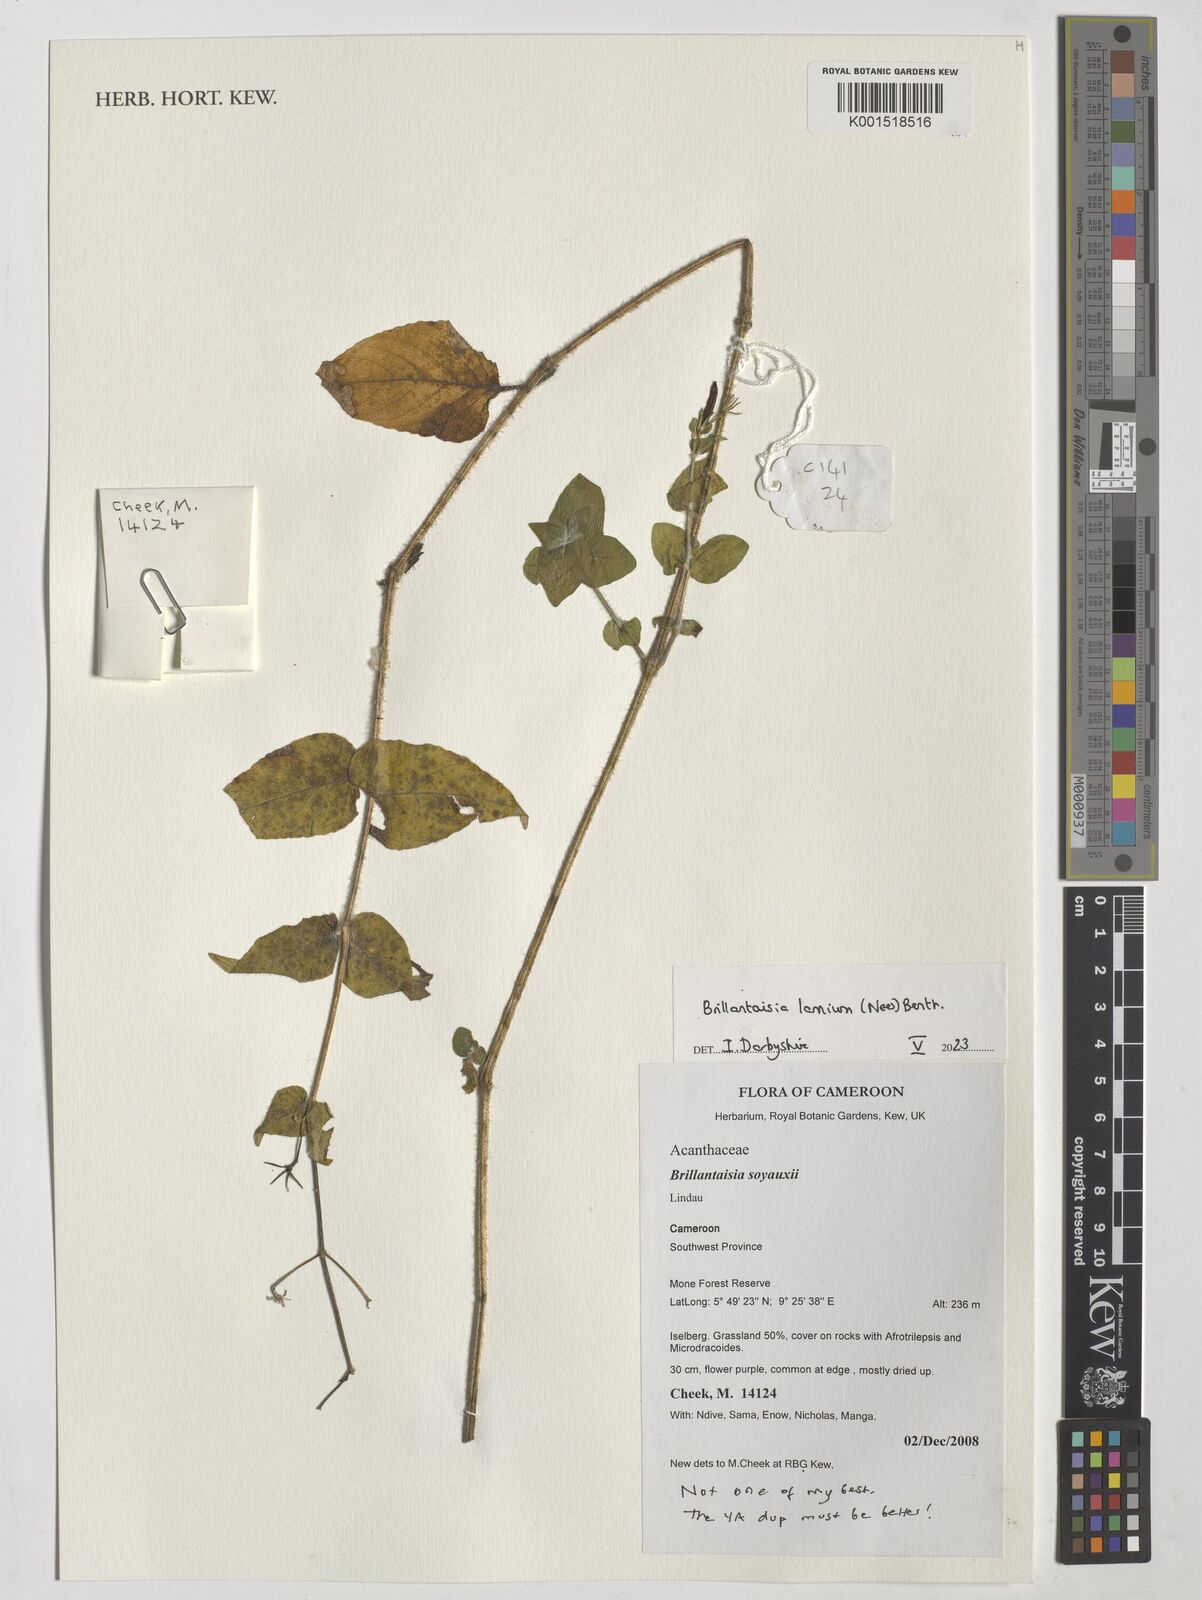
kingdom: Plantae
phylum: Tracheophyta
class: Magnoliopsida
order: Lamiales
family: Acanthaceae
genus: Brillantaisia
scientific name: Brillantaisia lamium
